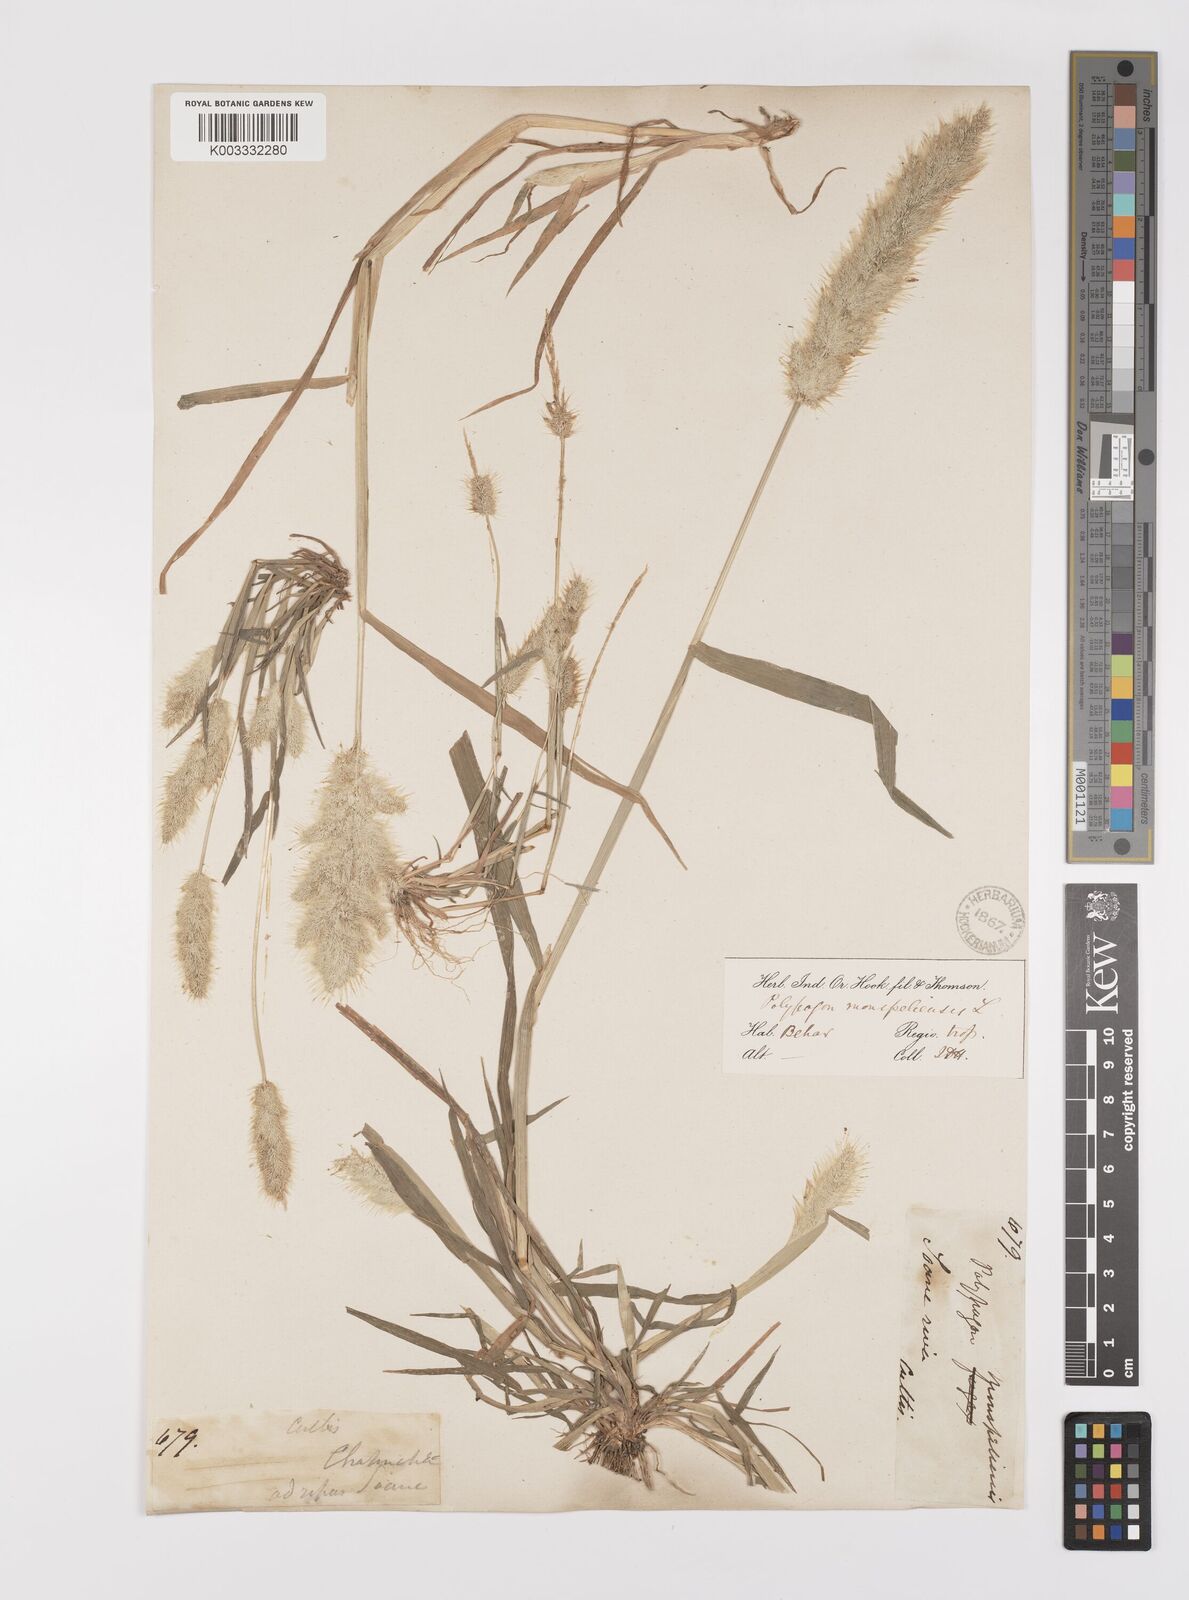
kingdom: Plantae
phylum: Tracheophyta
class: Liliopsida
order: Poales
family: Poaceae
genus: Polypogon
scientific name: Polypogon monspeliensis
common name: Annual rabbitsfoot grass
